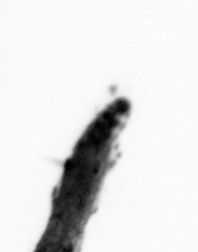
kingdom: Animalia
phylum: Annelida
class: Polychaeta
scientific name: Polychaeta
